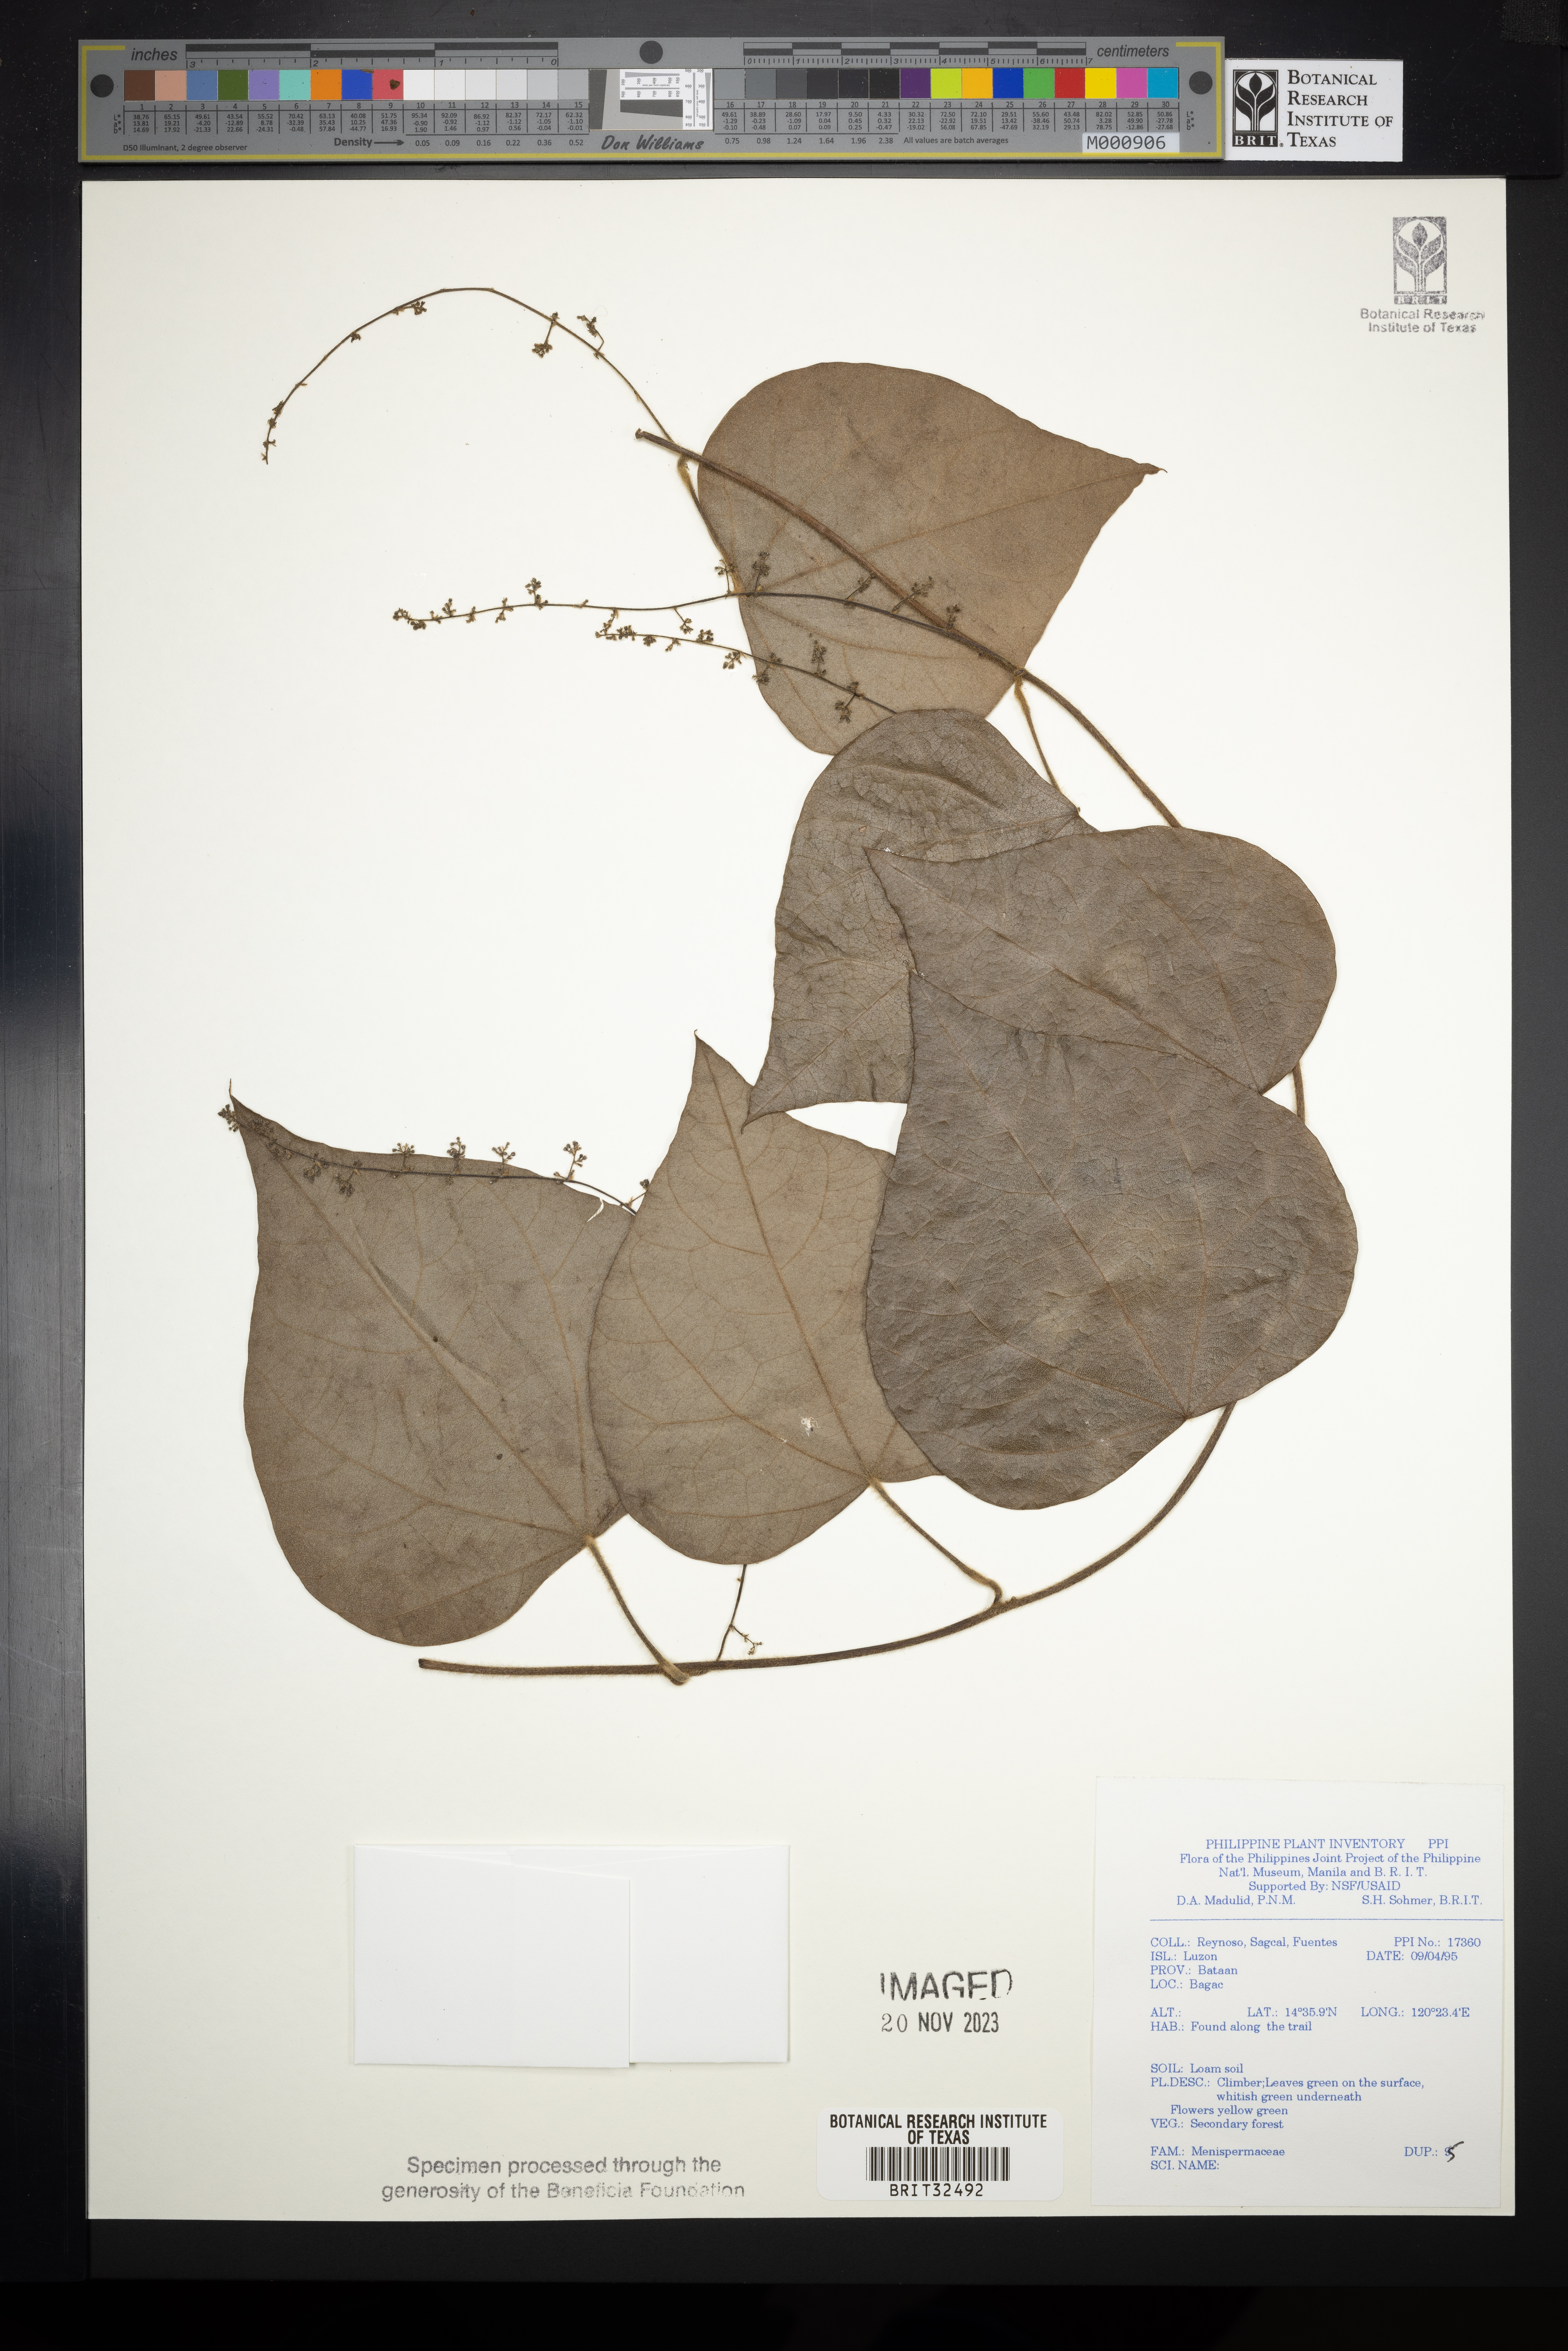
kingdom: Plantae
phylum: Tracheophyta
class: Magnoliopsida
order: Ranunculales
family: Menispermaceae
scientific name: Menispermaceae
